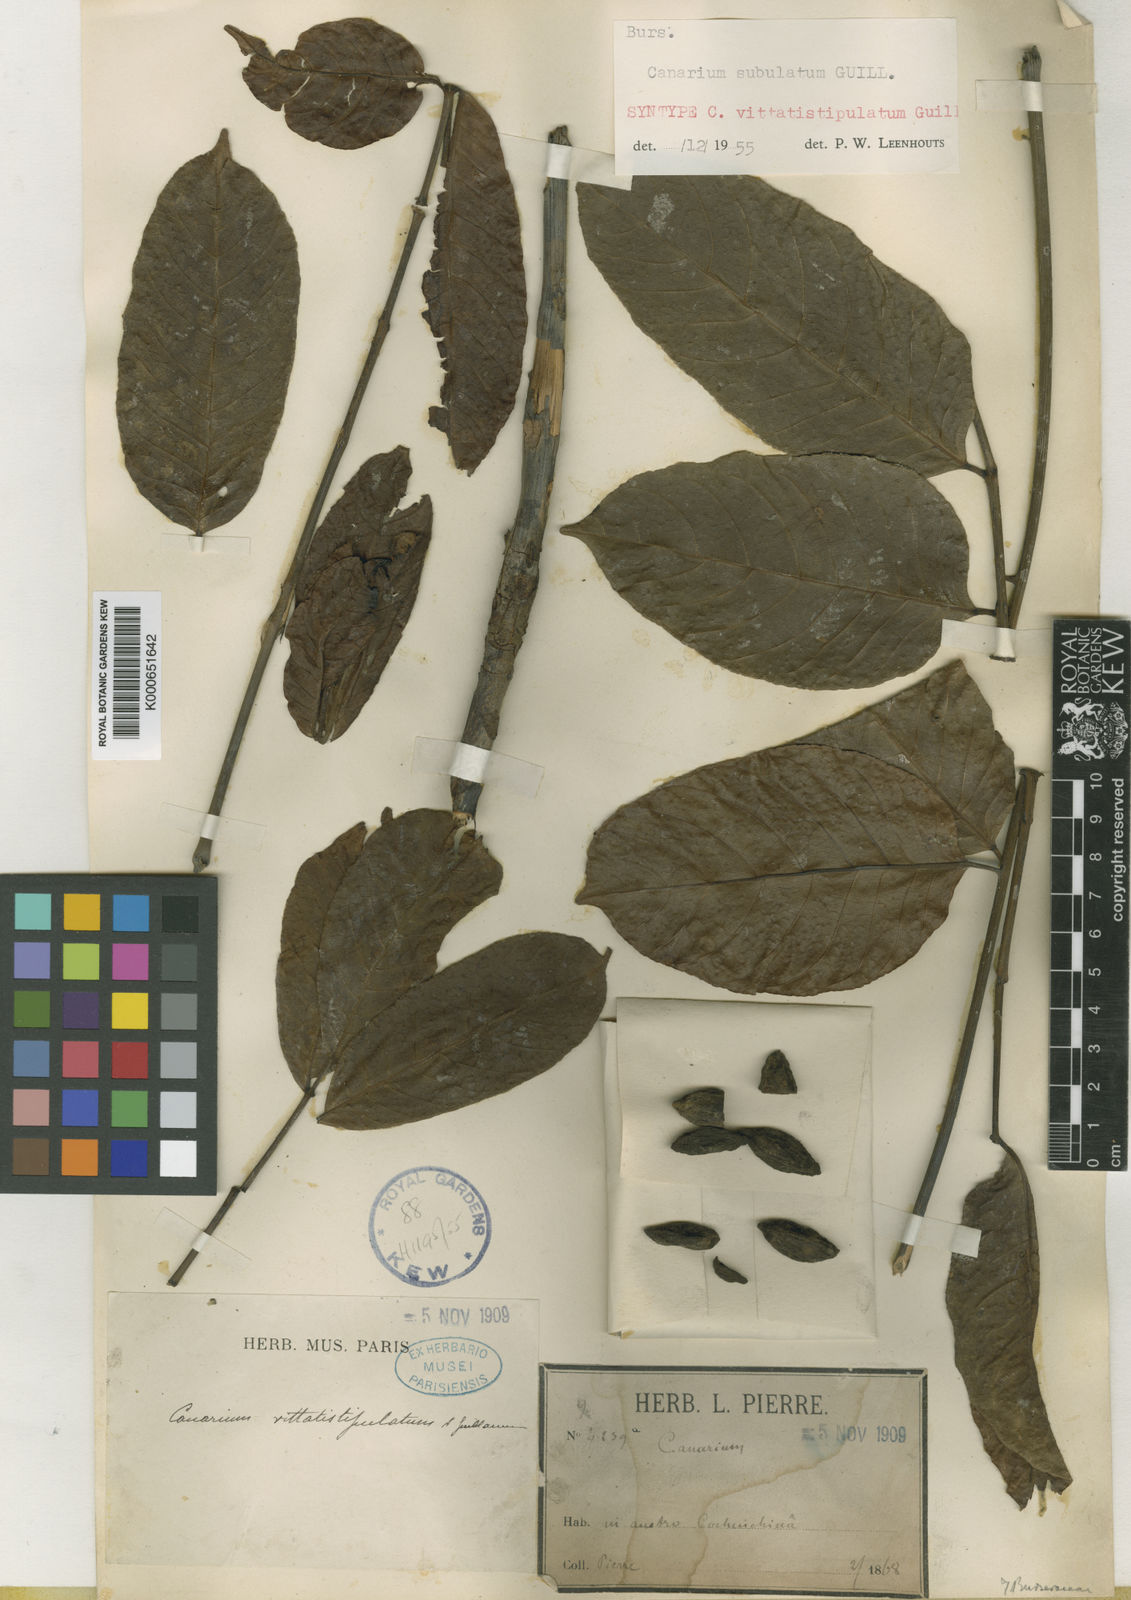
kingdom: Plantae
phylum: Tracheophyta
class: Magnoliopsida
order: Sapindales
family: Burseraceae
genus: Canarium
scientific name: Canarium subulatum
